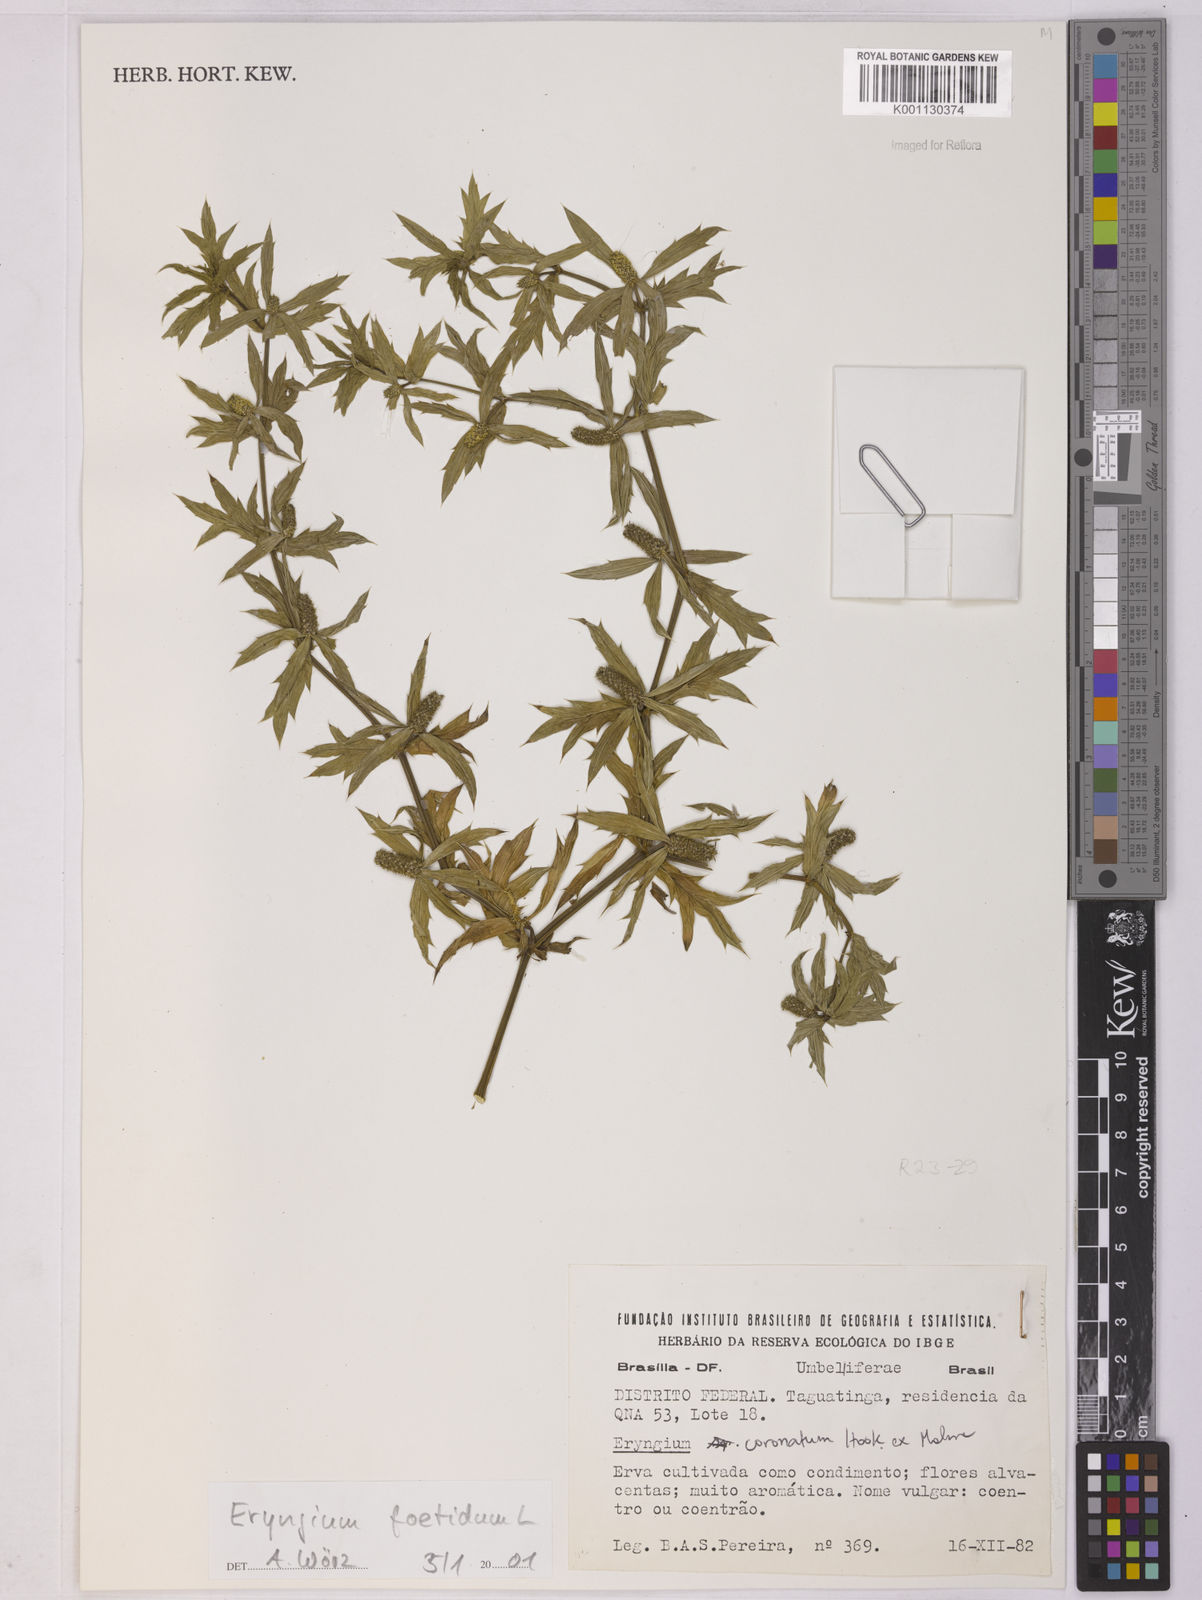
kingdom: Plantae
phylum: Tracheophyta
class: Magnoliopsida
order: Apiales
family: Apiaceae
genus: Eryngium
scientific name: Eryngium foetidum
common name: Fitweed
